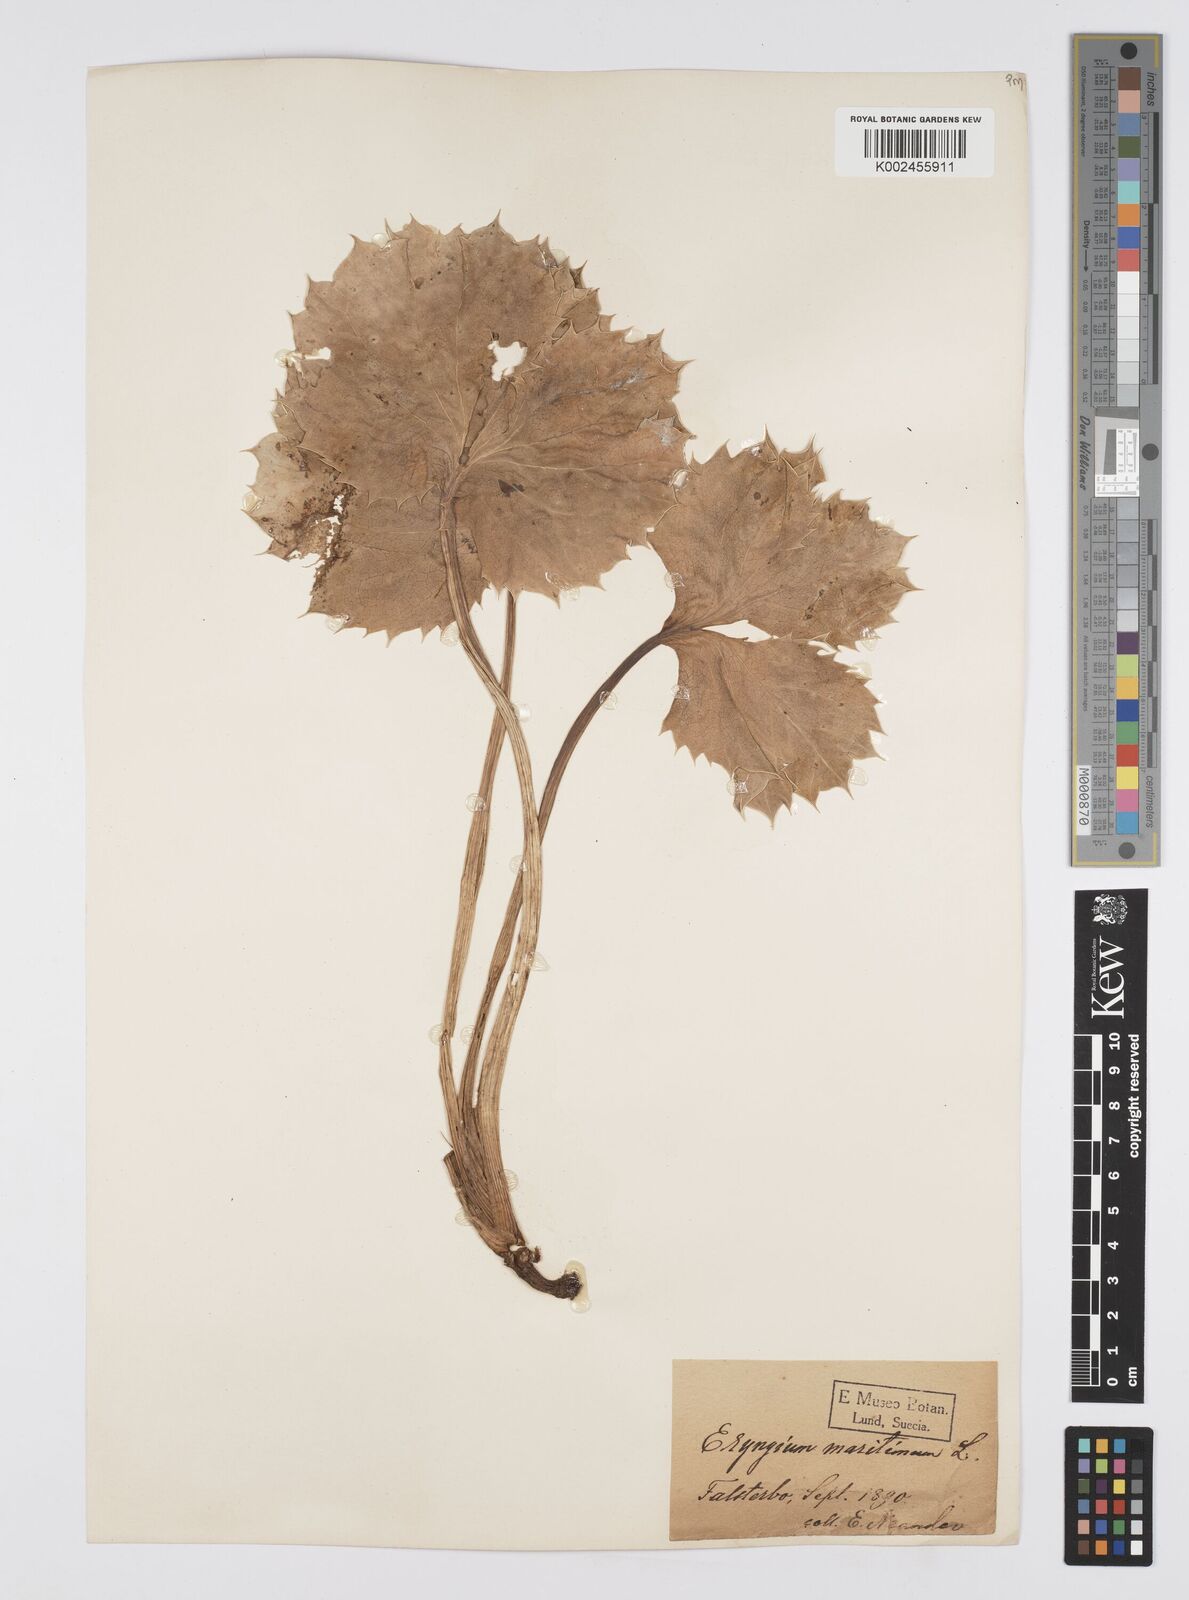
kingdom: Plantae
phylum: Tracheophyta
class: Magnoliopsida
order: Apiales
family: Apiaceae
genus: Eryngium
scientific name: Eryngium maritimum
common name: Sea-holly
